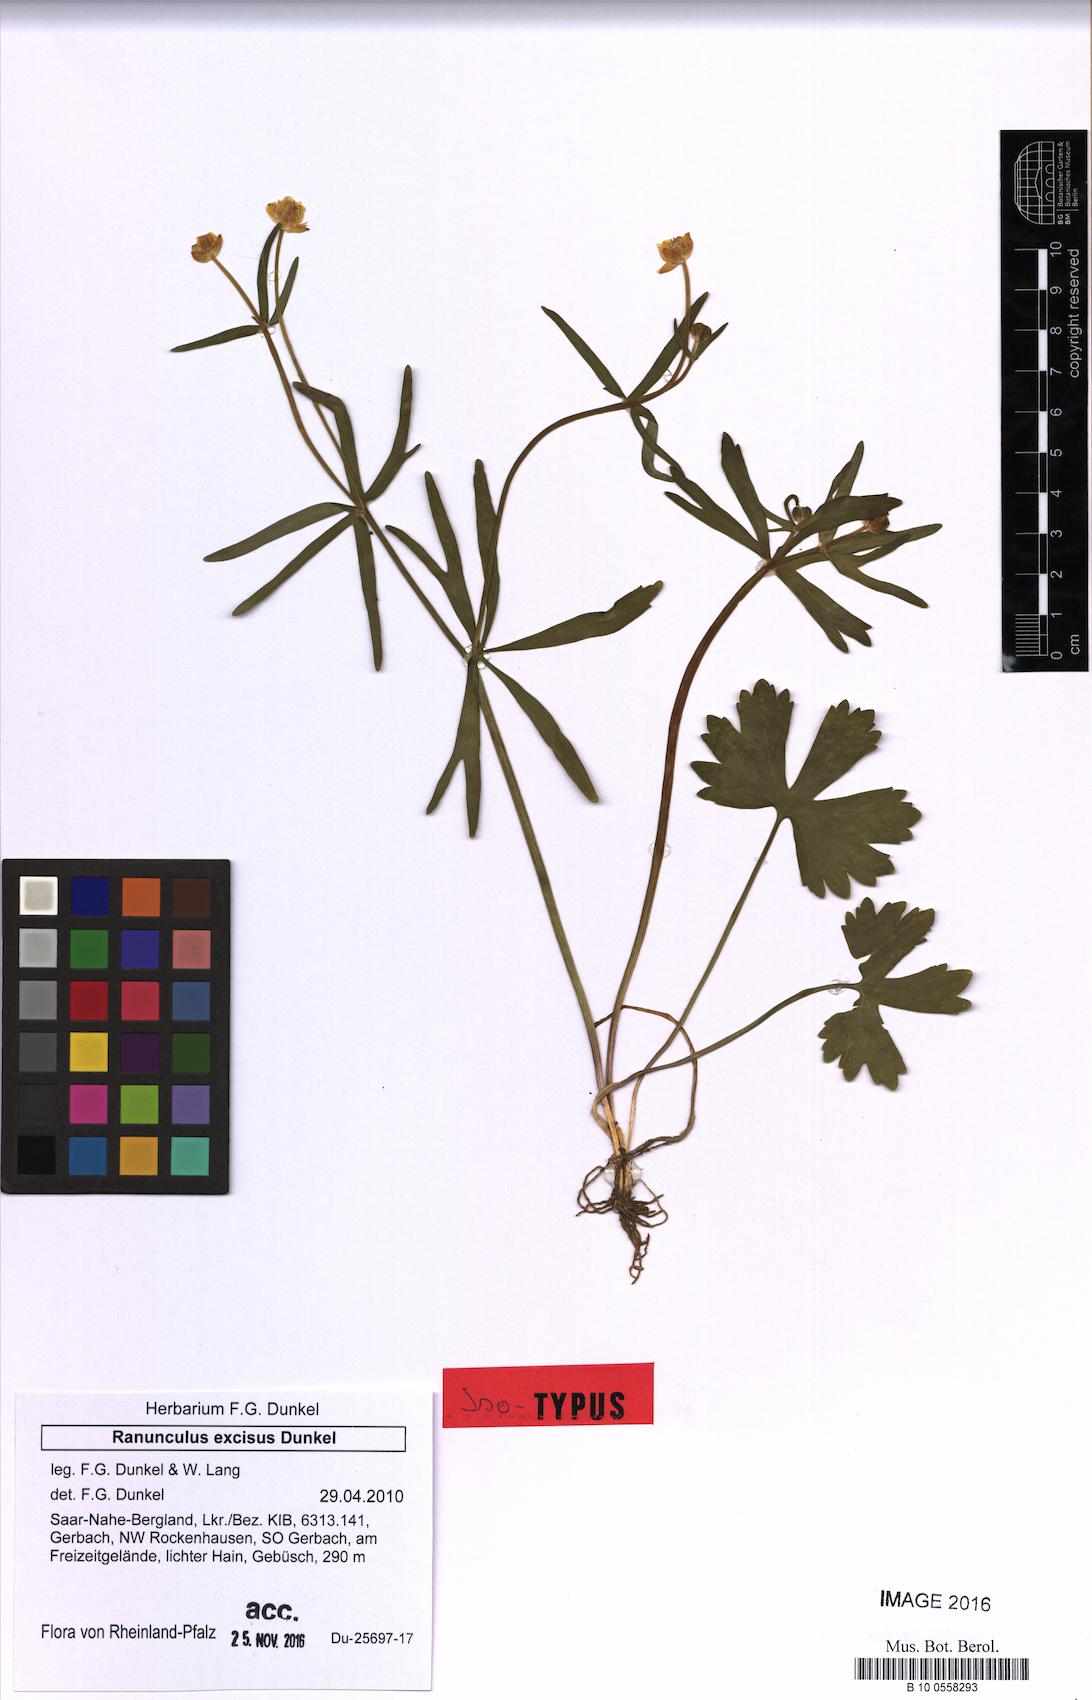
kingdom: Plantae
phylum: Tracheophyta
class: Magnoliopsida
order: Ranunculales
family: Ranunculaceae
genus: Ranunculus
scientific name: Ranunculus excisus
